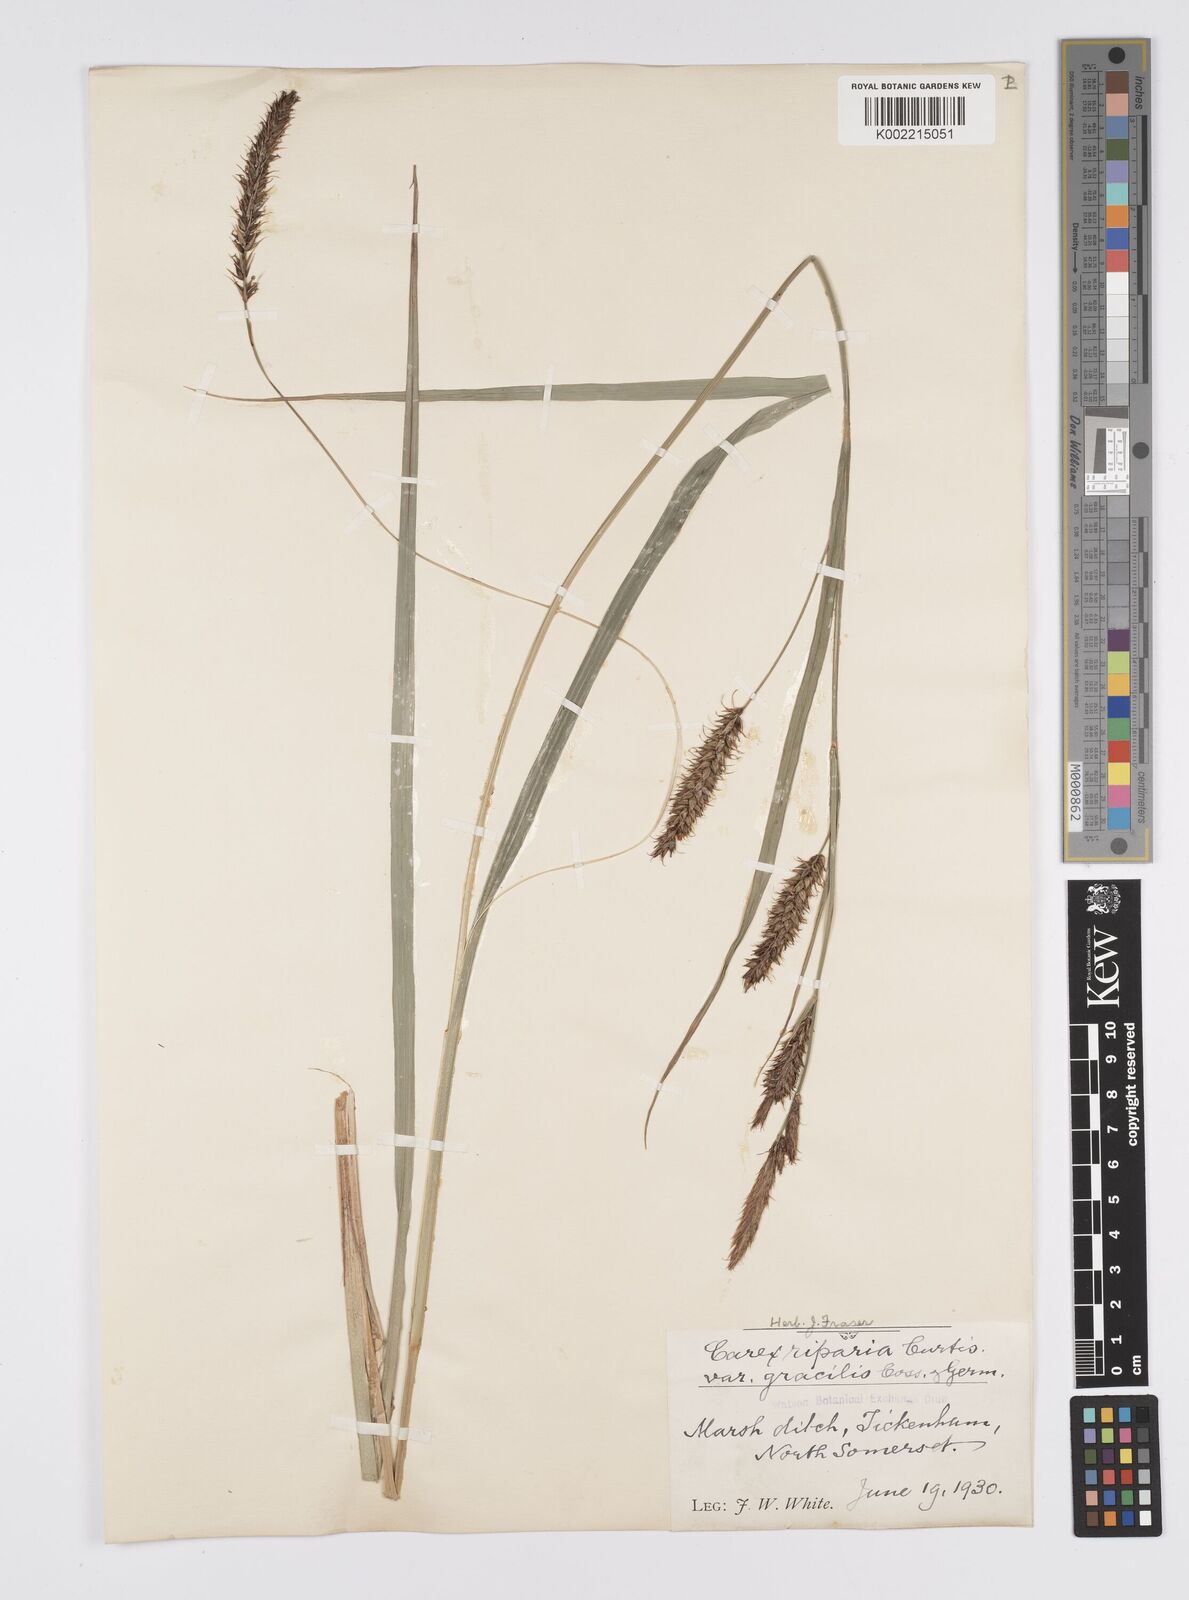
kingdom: Plantae
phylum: Tracheophyta
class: Liliopsida
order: Poales
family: Cyperaceae
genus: Carex
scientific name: Carex riparia
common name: Greater pond-sedge
